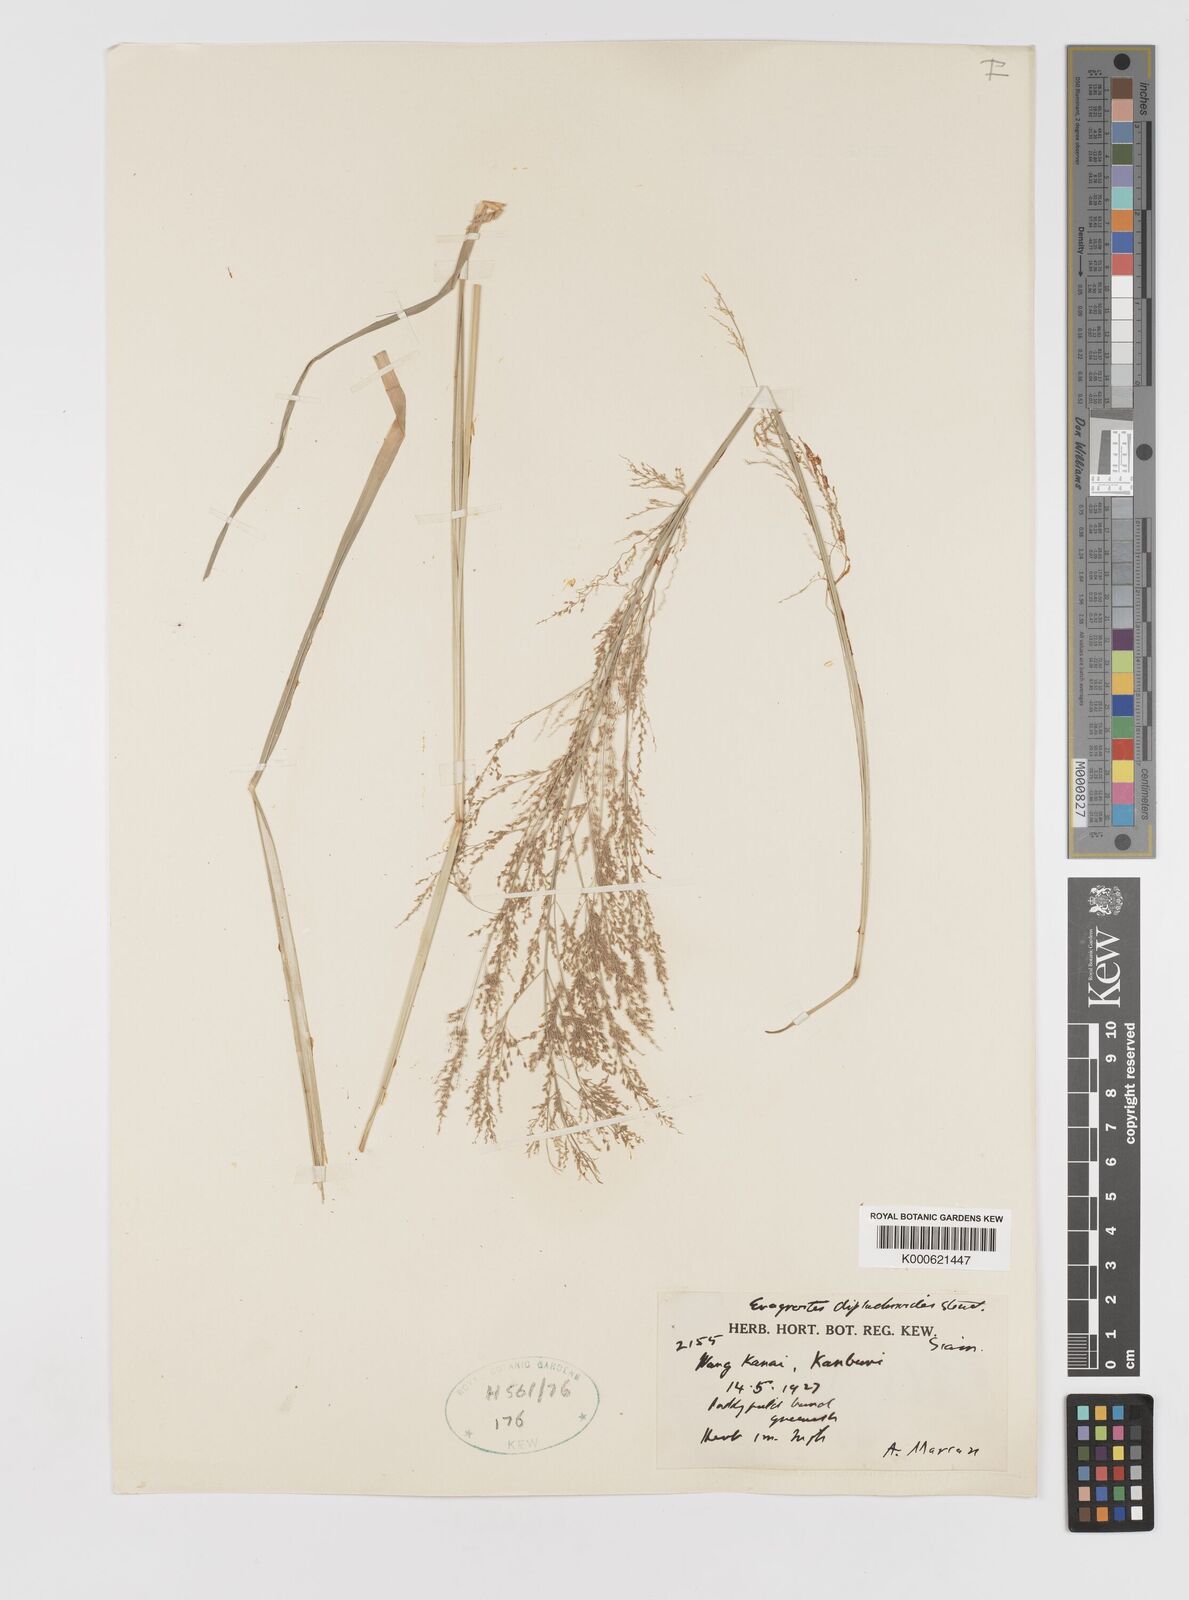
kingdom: Plantae
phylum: Tracheophyta
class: Liliopsida
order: Poales
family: Poaceae
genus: Eragrostis
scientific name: Eragrostis japonica
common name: Pond lovegrass
